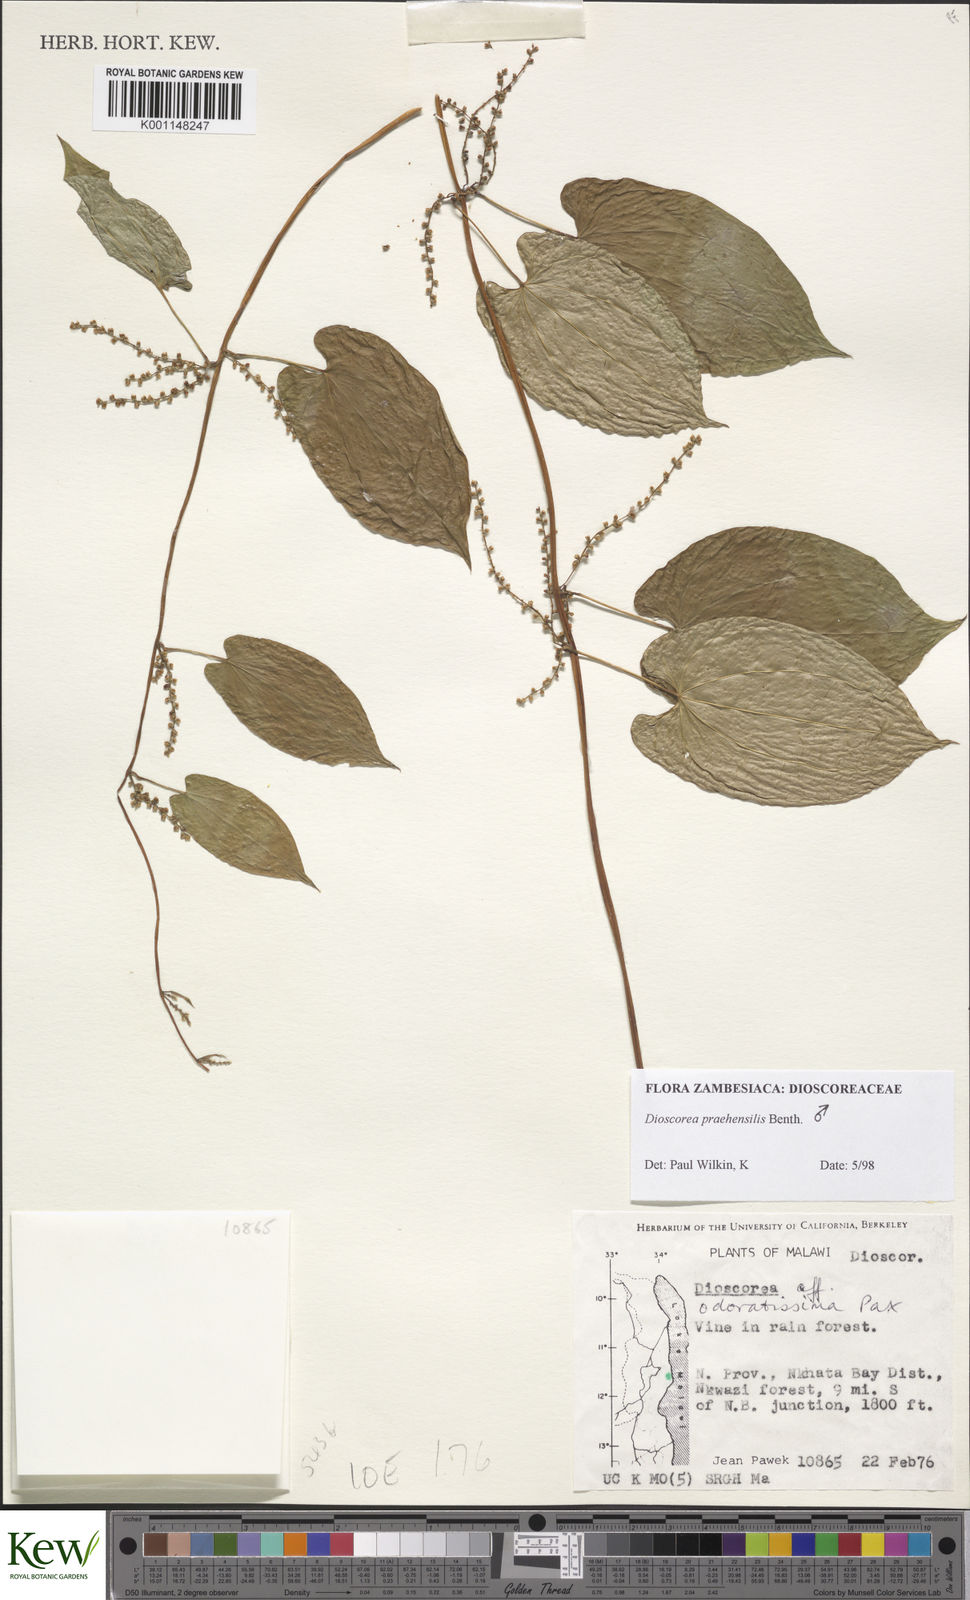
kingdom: Plantae
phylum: Tracheophyta
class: Liliopsida
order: Dioscoreales
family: Dioscoreaceae
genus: Dioscorea
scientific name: Dioscorea praehensilis
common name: Bush yam
